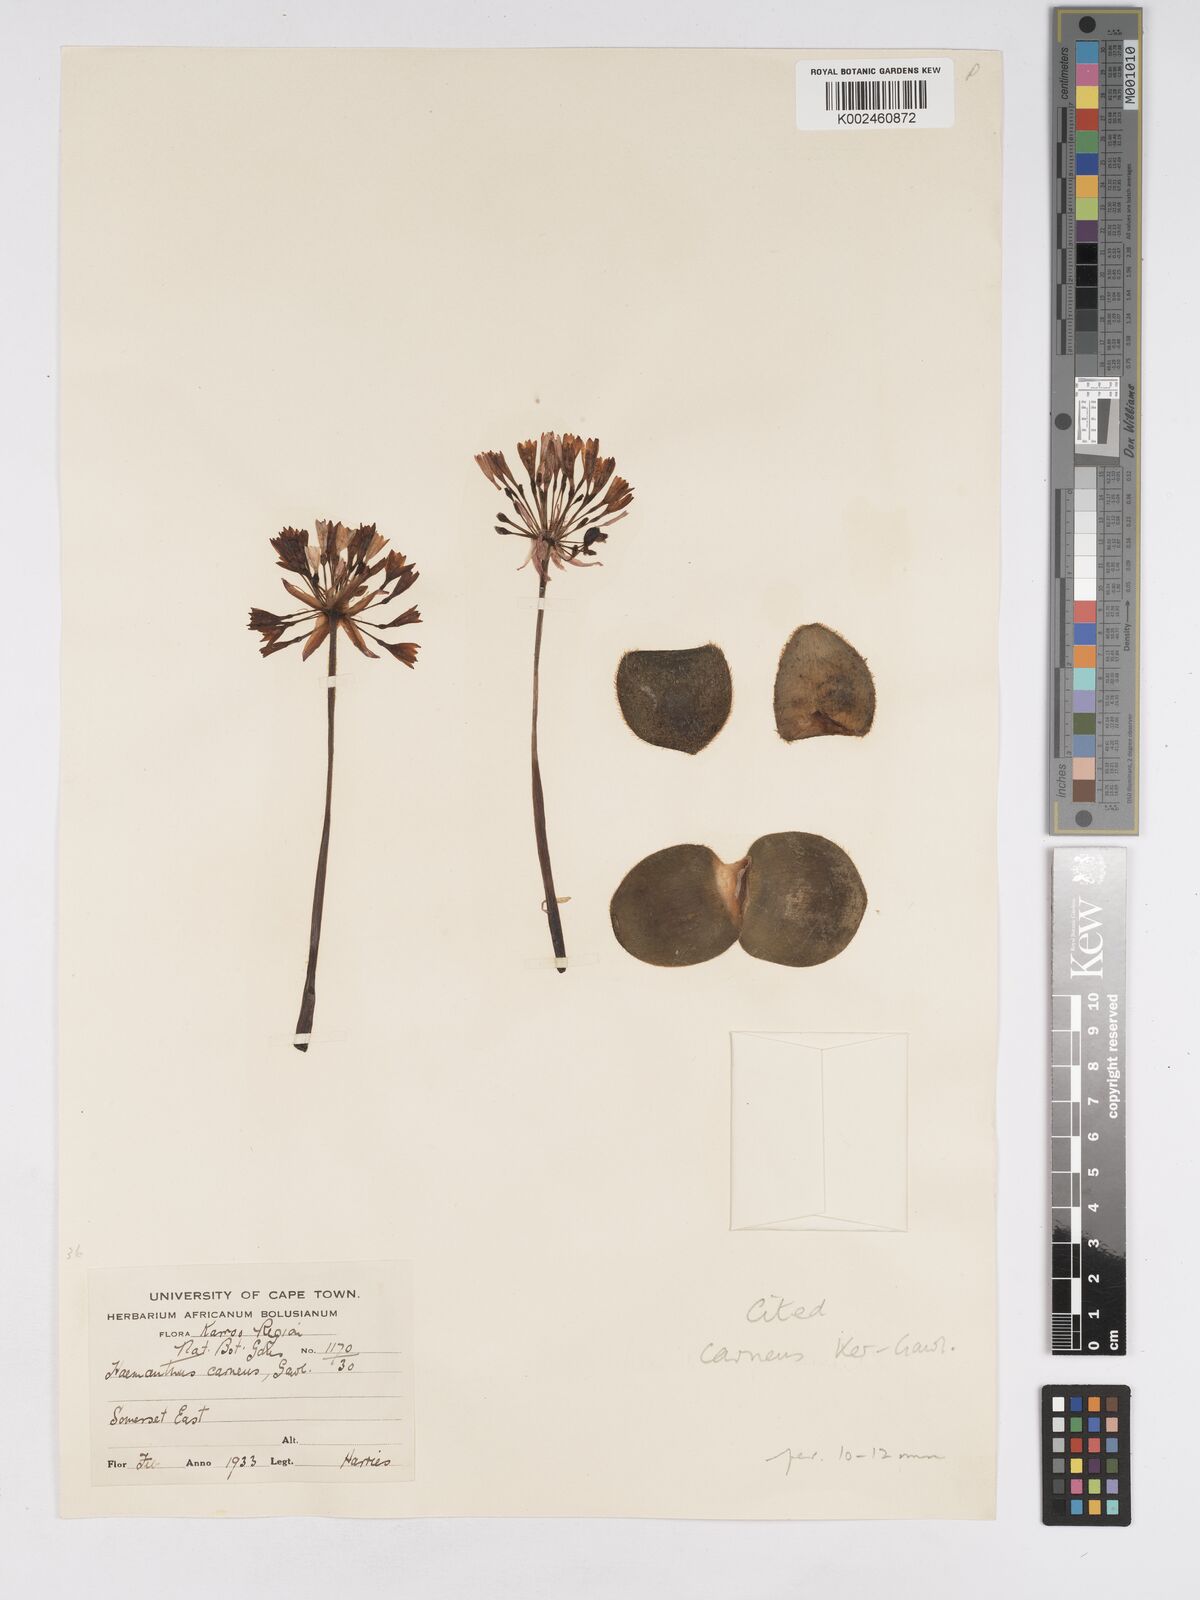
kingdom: Plantae
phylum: Tracheophyta
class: Liliopsida
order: Asparagales
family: Amaryllidaceae
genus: Haemanthus
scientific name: Haemanthus carneus
